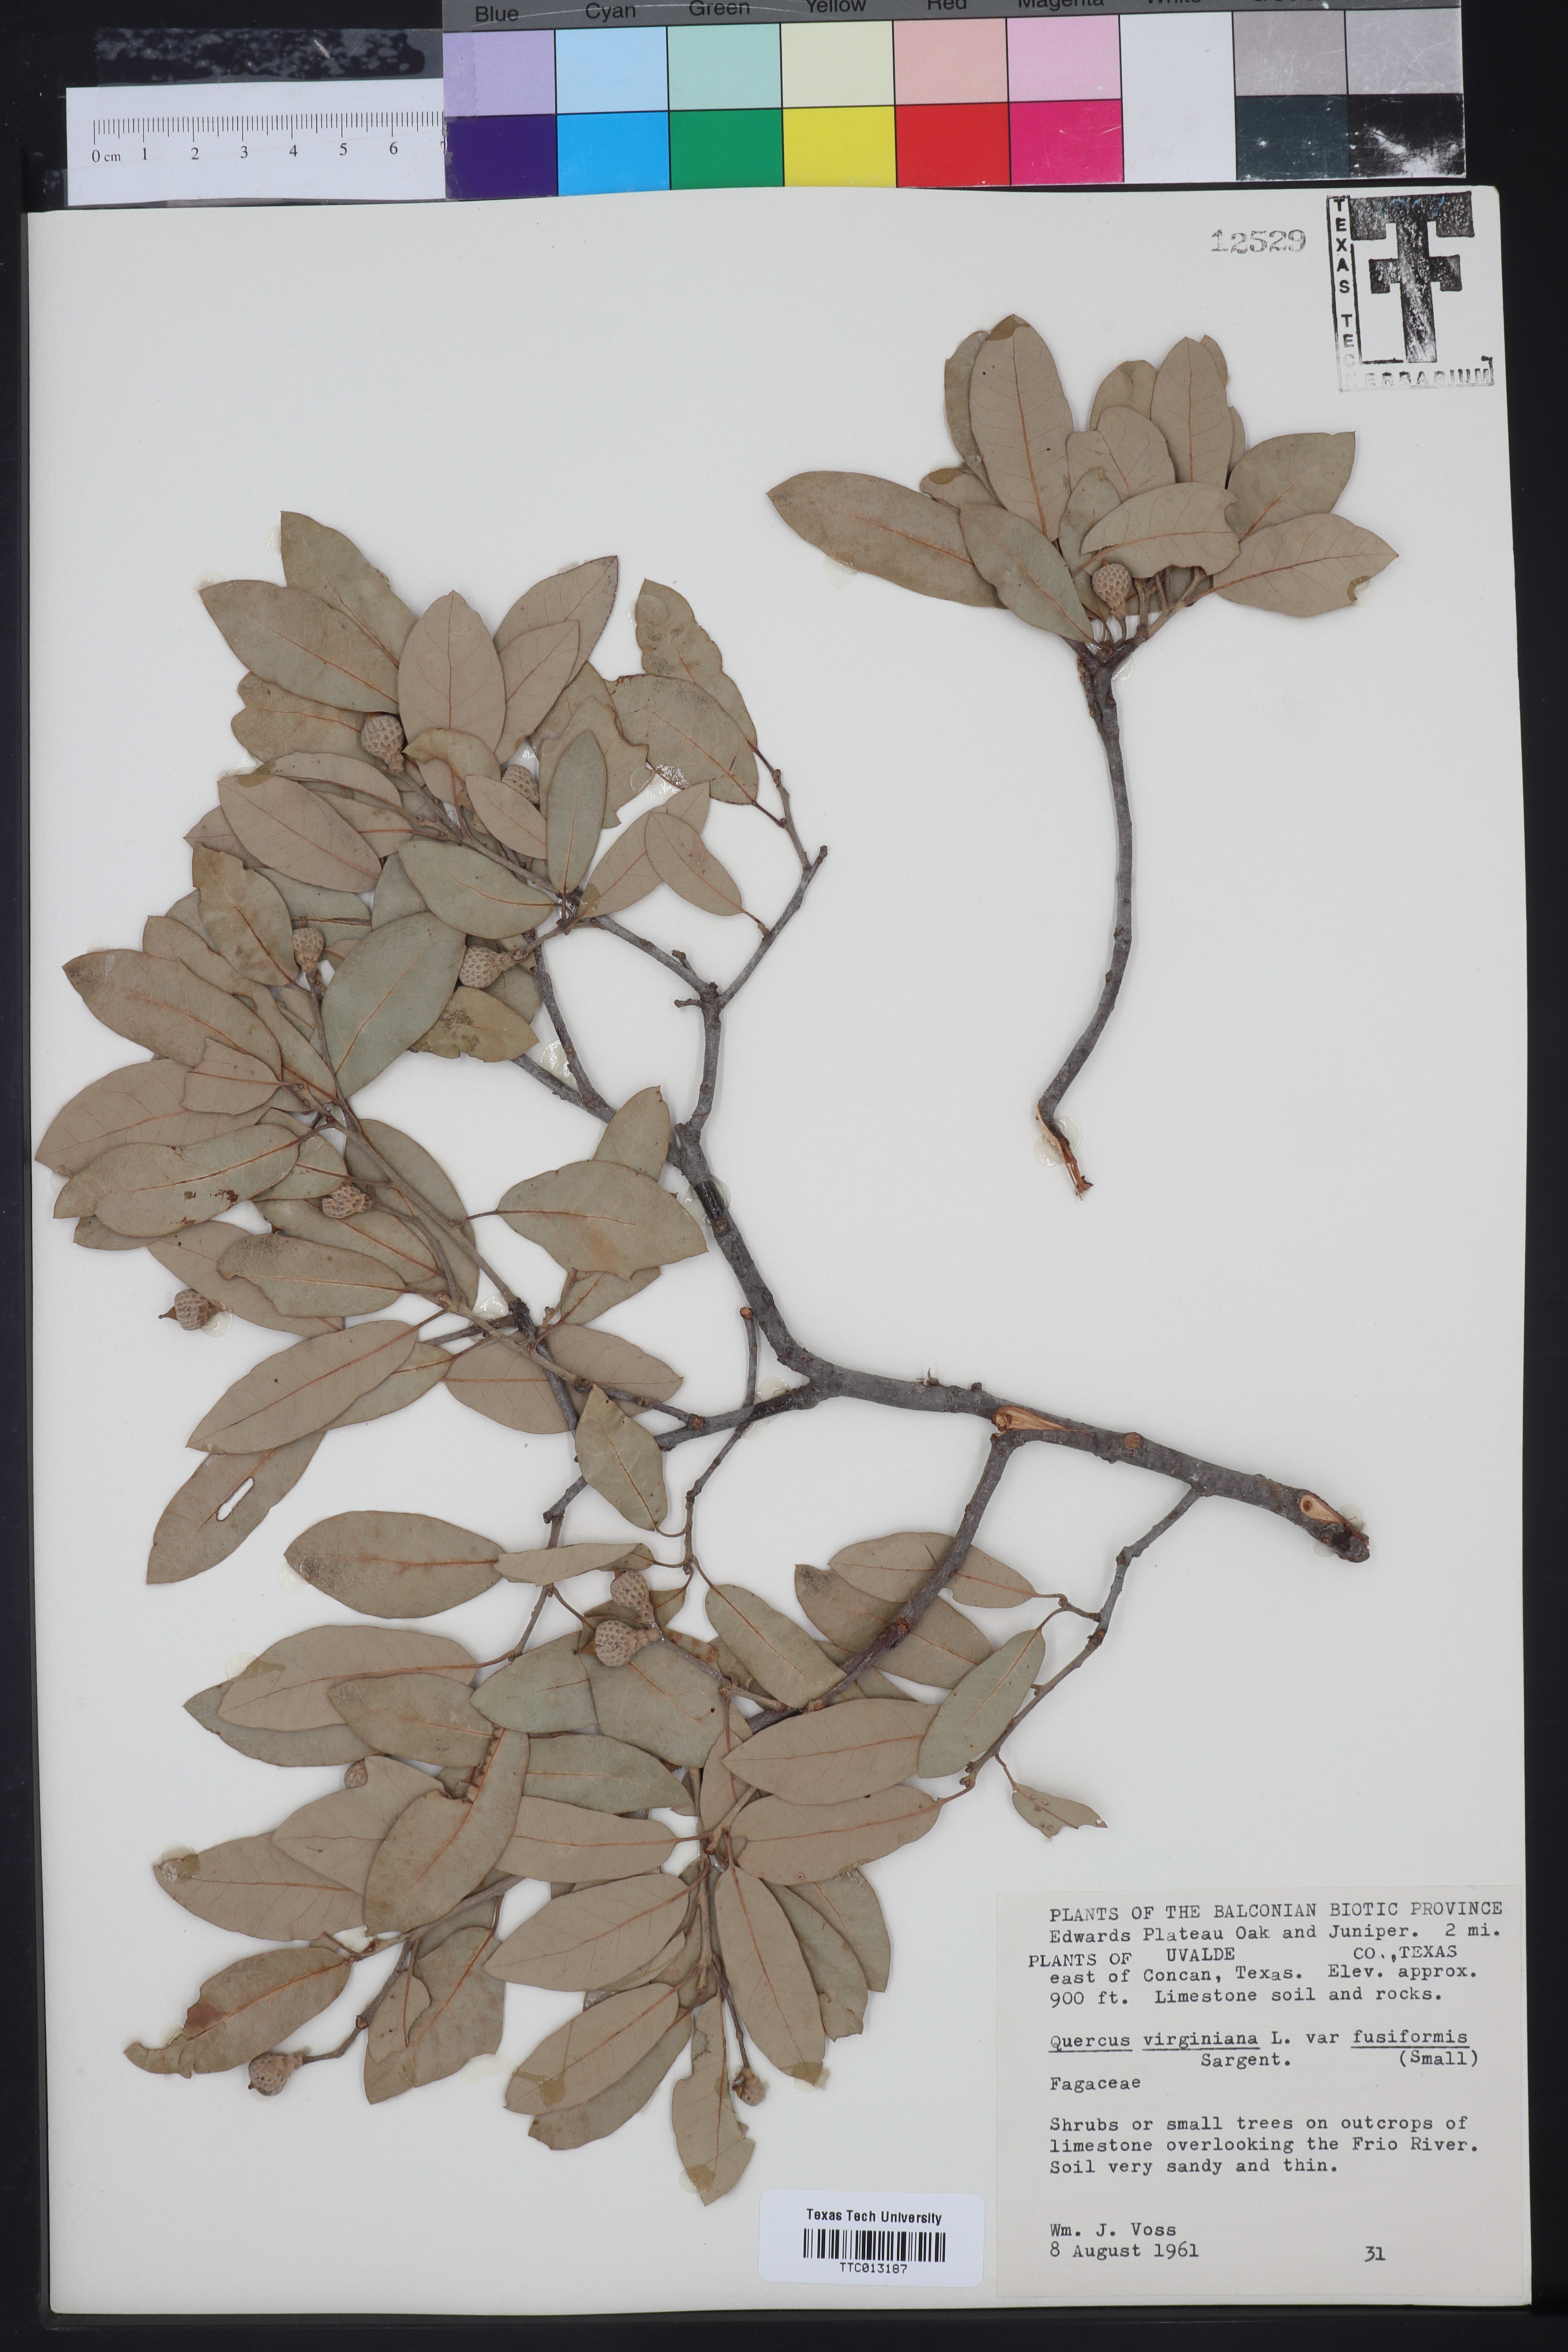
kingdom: Plantae
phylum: Tracheophyta
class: Magnoliopsida
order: Fagales
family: Fagaceae
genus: Quercus
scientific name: Quercus fusiformis
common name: Texas live oak
